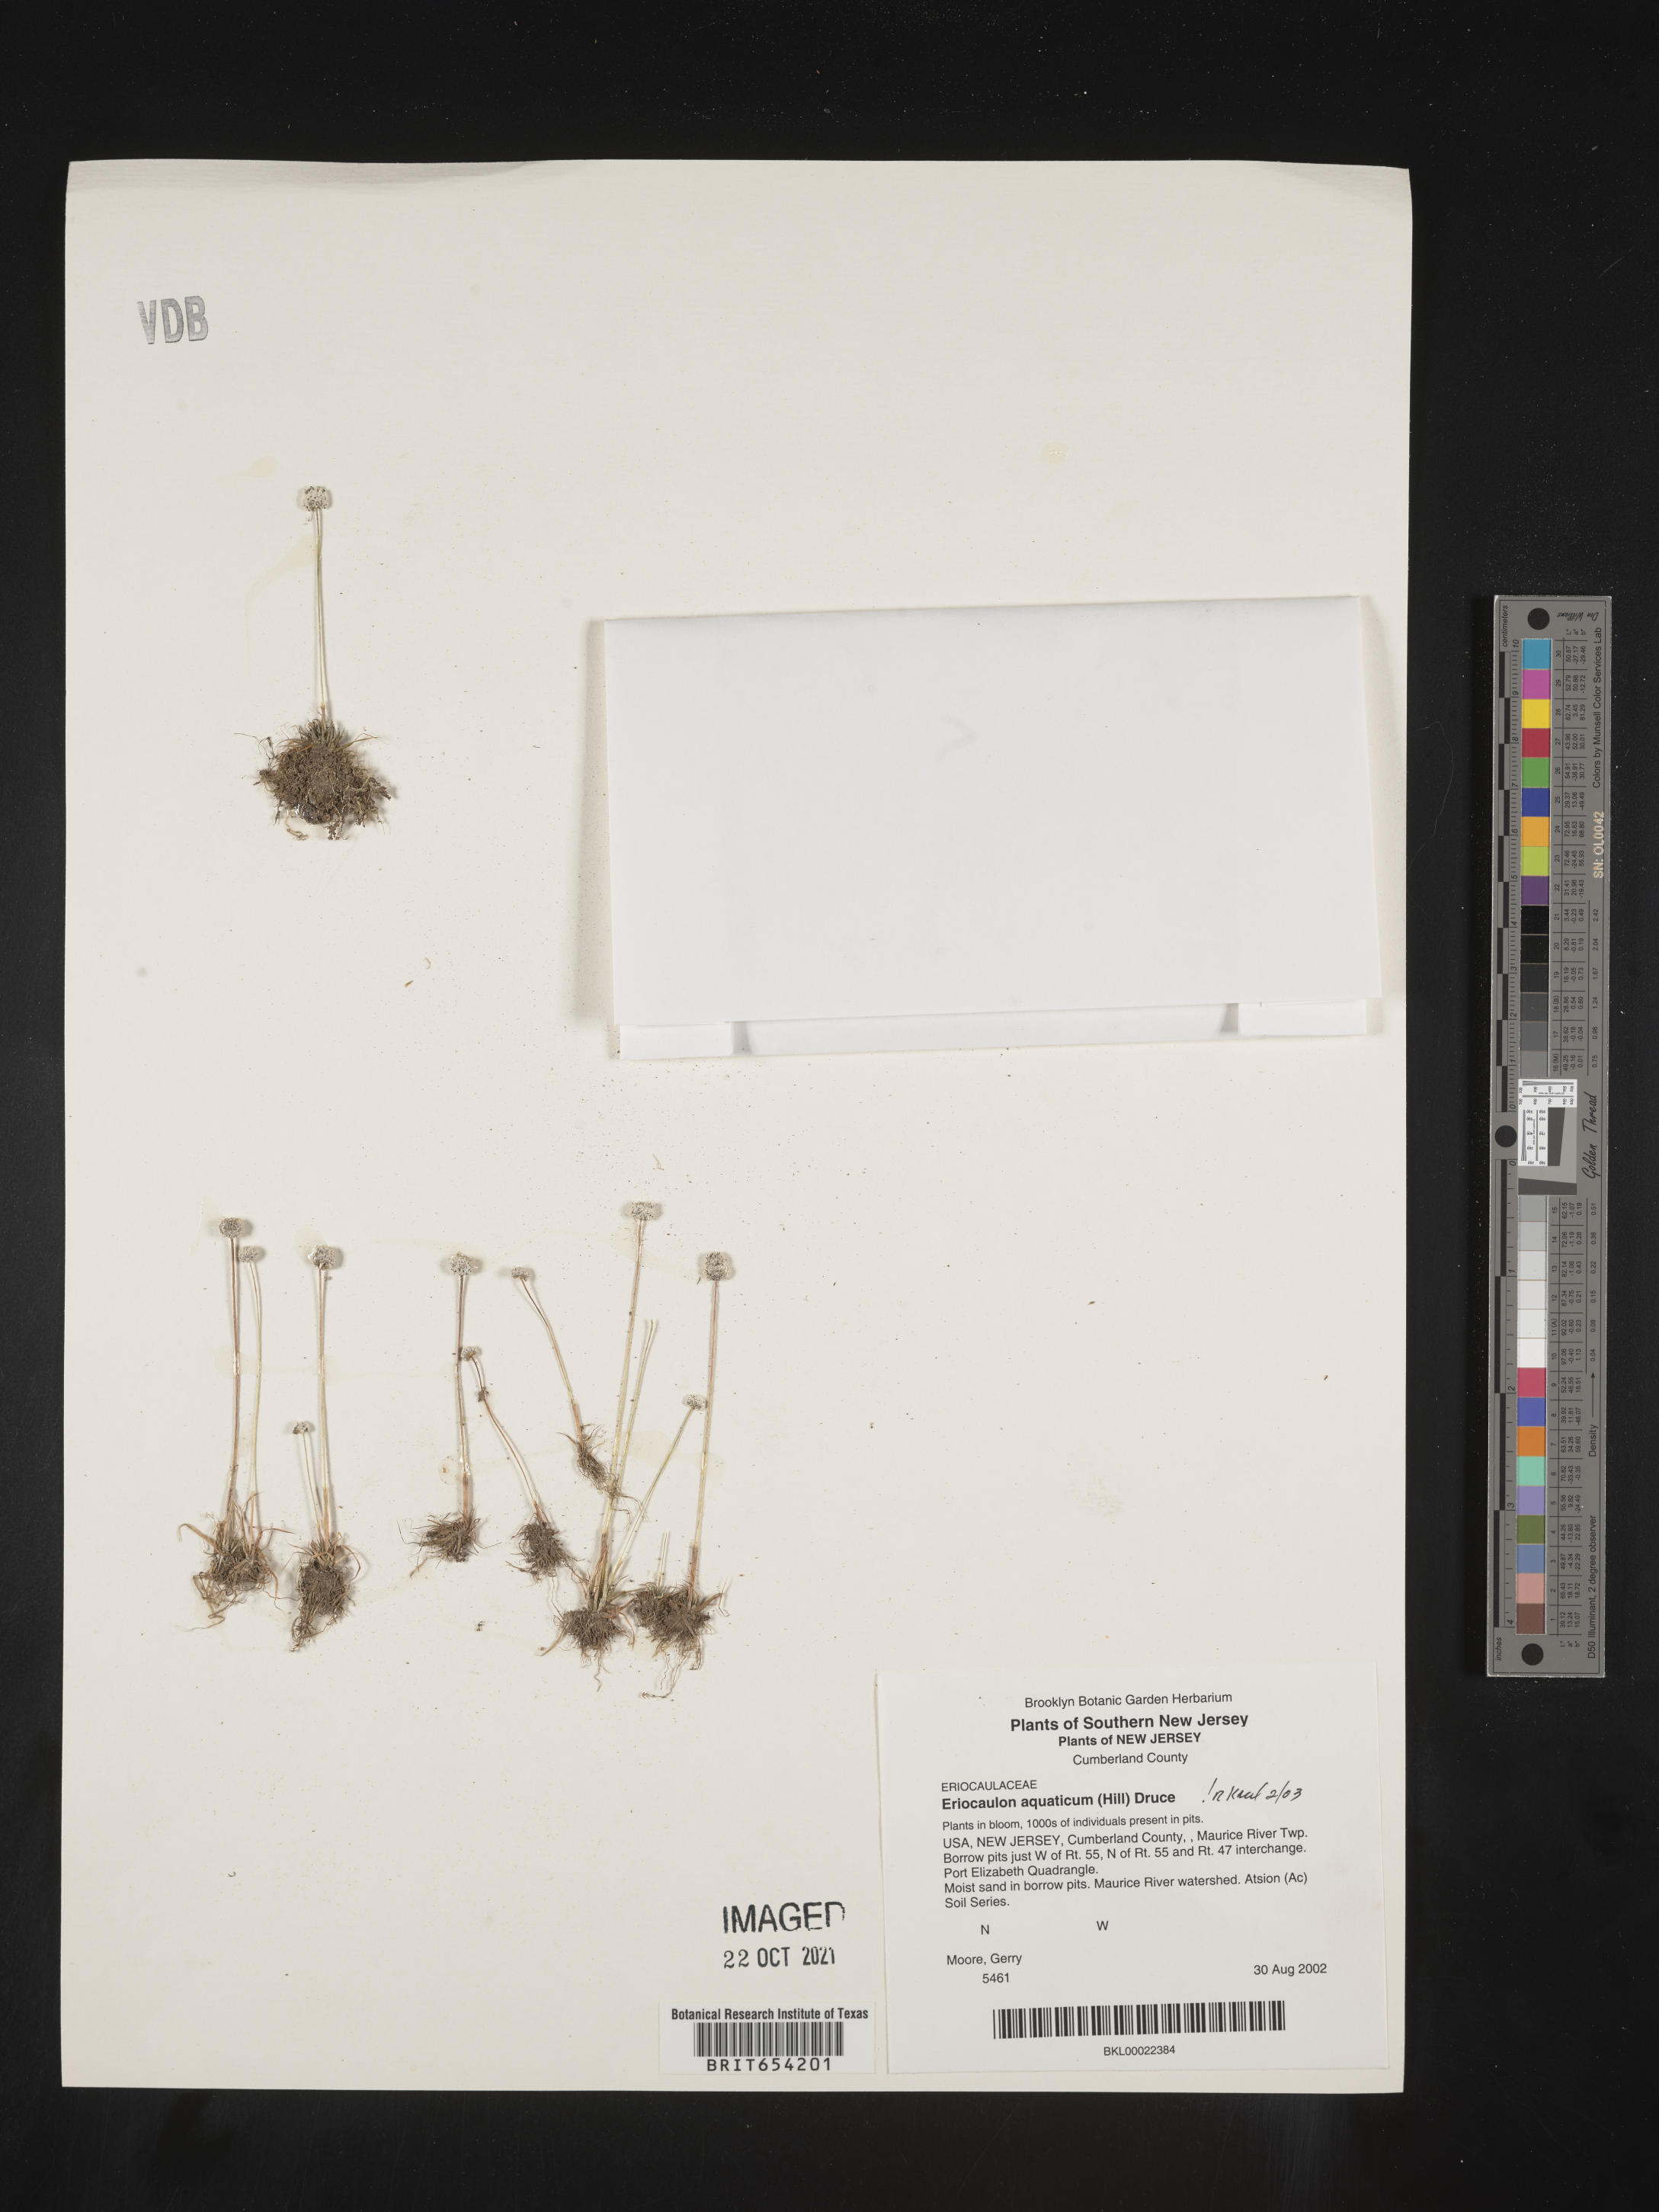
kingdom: Plantae
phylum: Tracheophyta
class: Liliopsida
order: Poales
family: Eriocaulaceae
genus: Eriocaulon
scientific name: Eriocaulon aquaticum
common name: Pipewort
